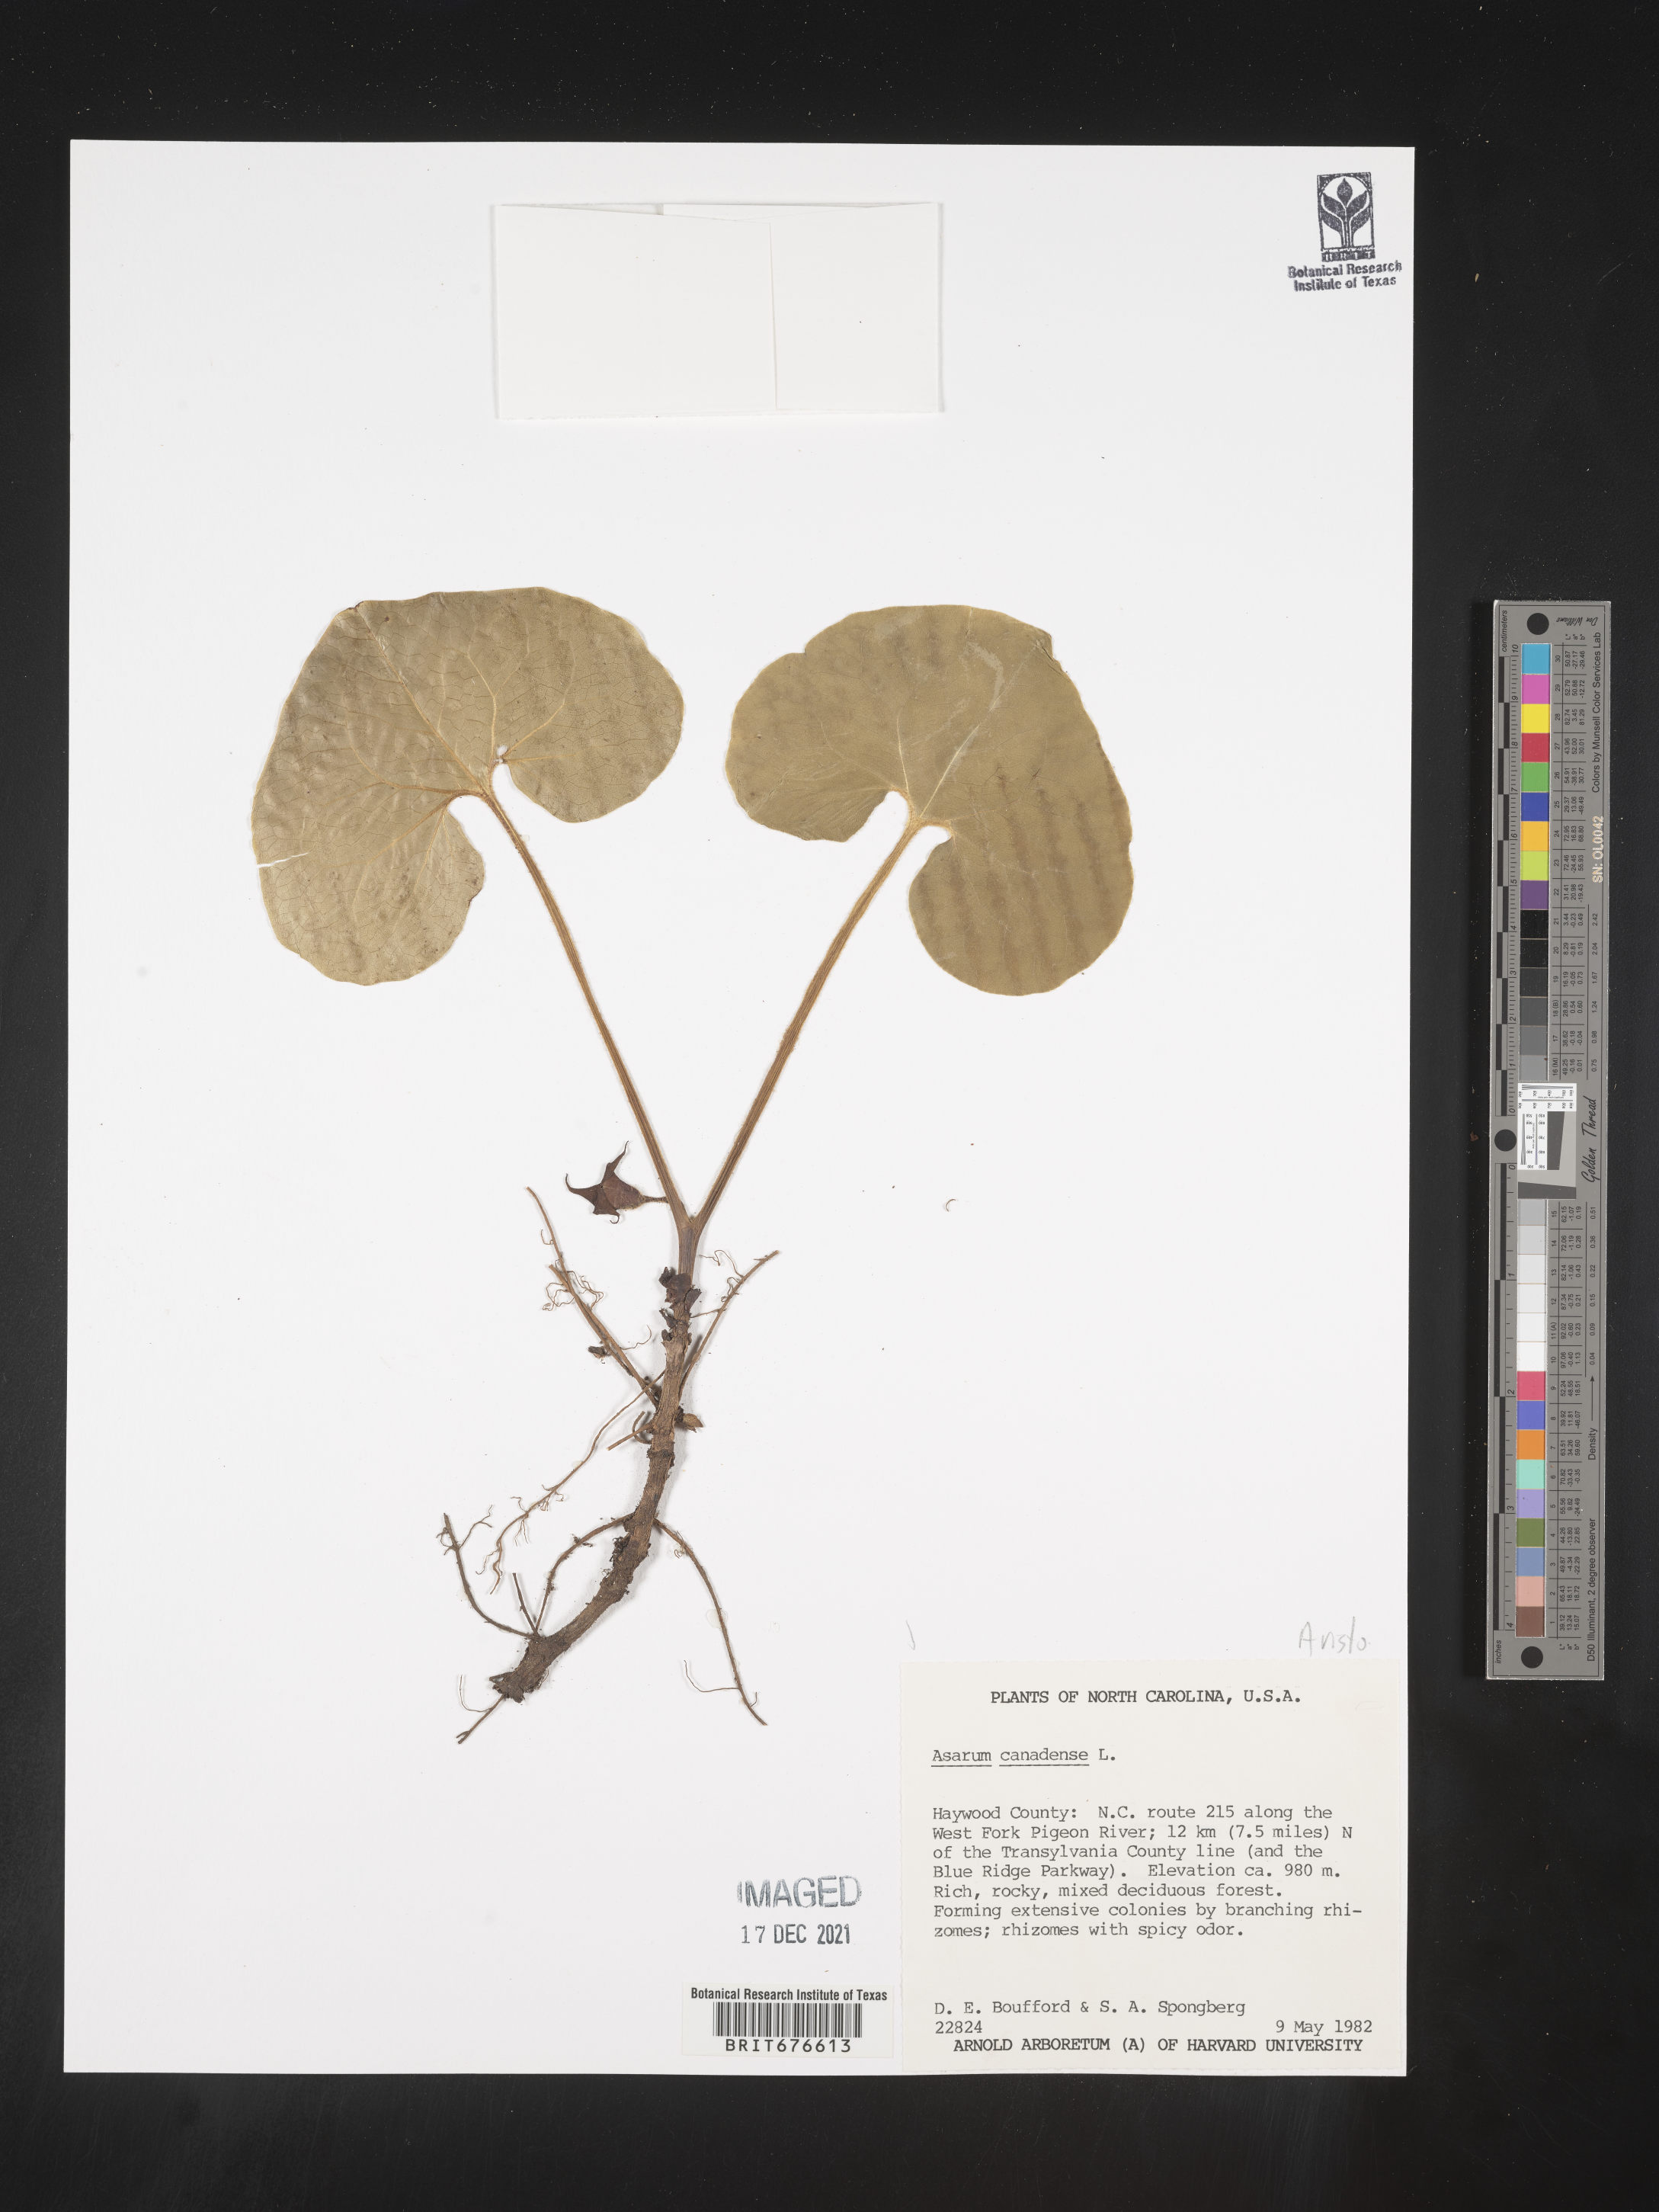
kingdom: Plantae
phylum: Tracheophyta
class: Magnoliopsida
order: Piperales
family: Aristolochiaceae
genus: Asarum
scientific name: Asarum canadense
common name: Wild ginger
